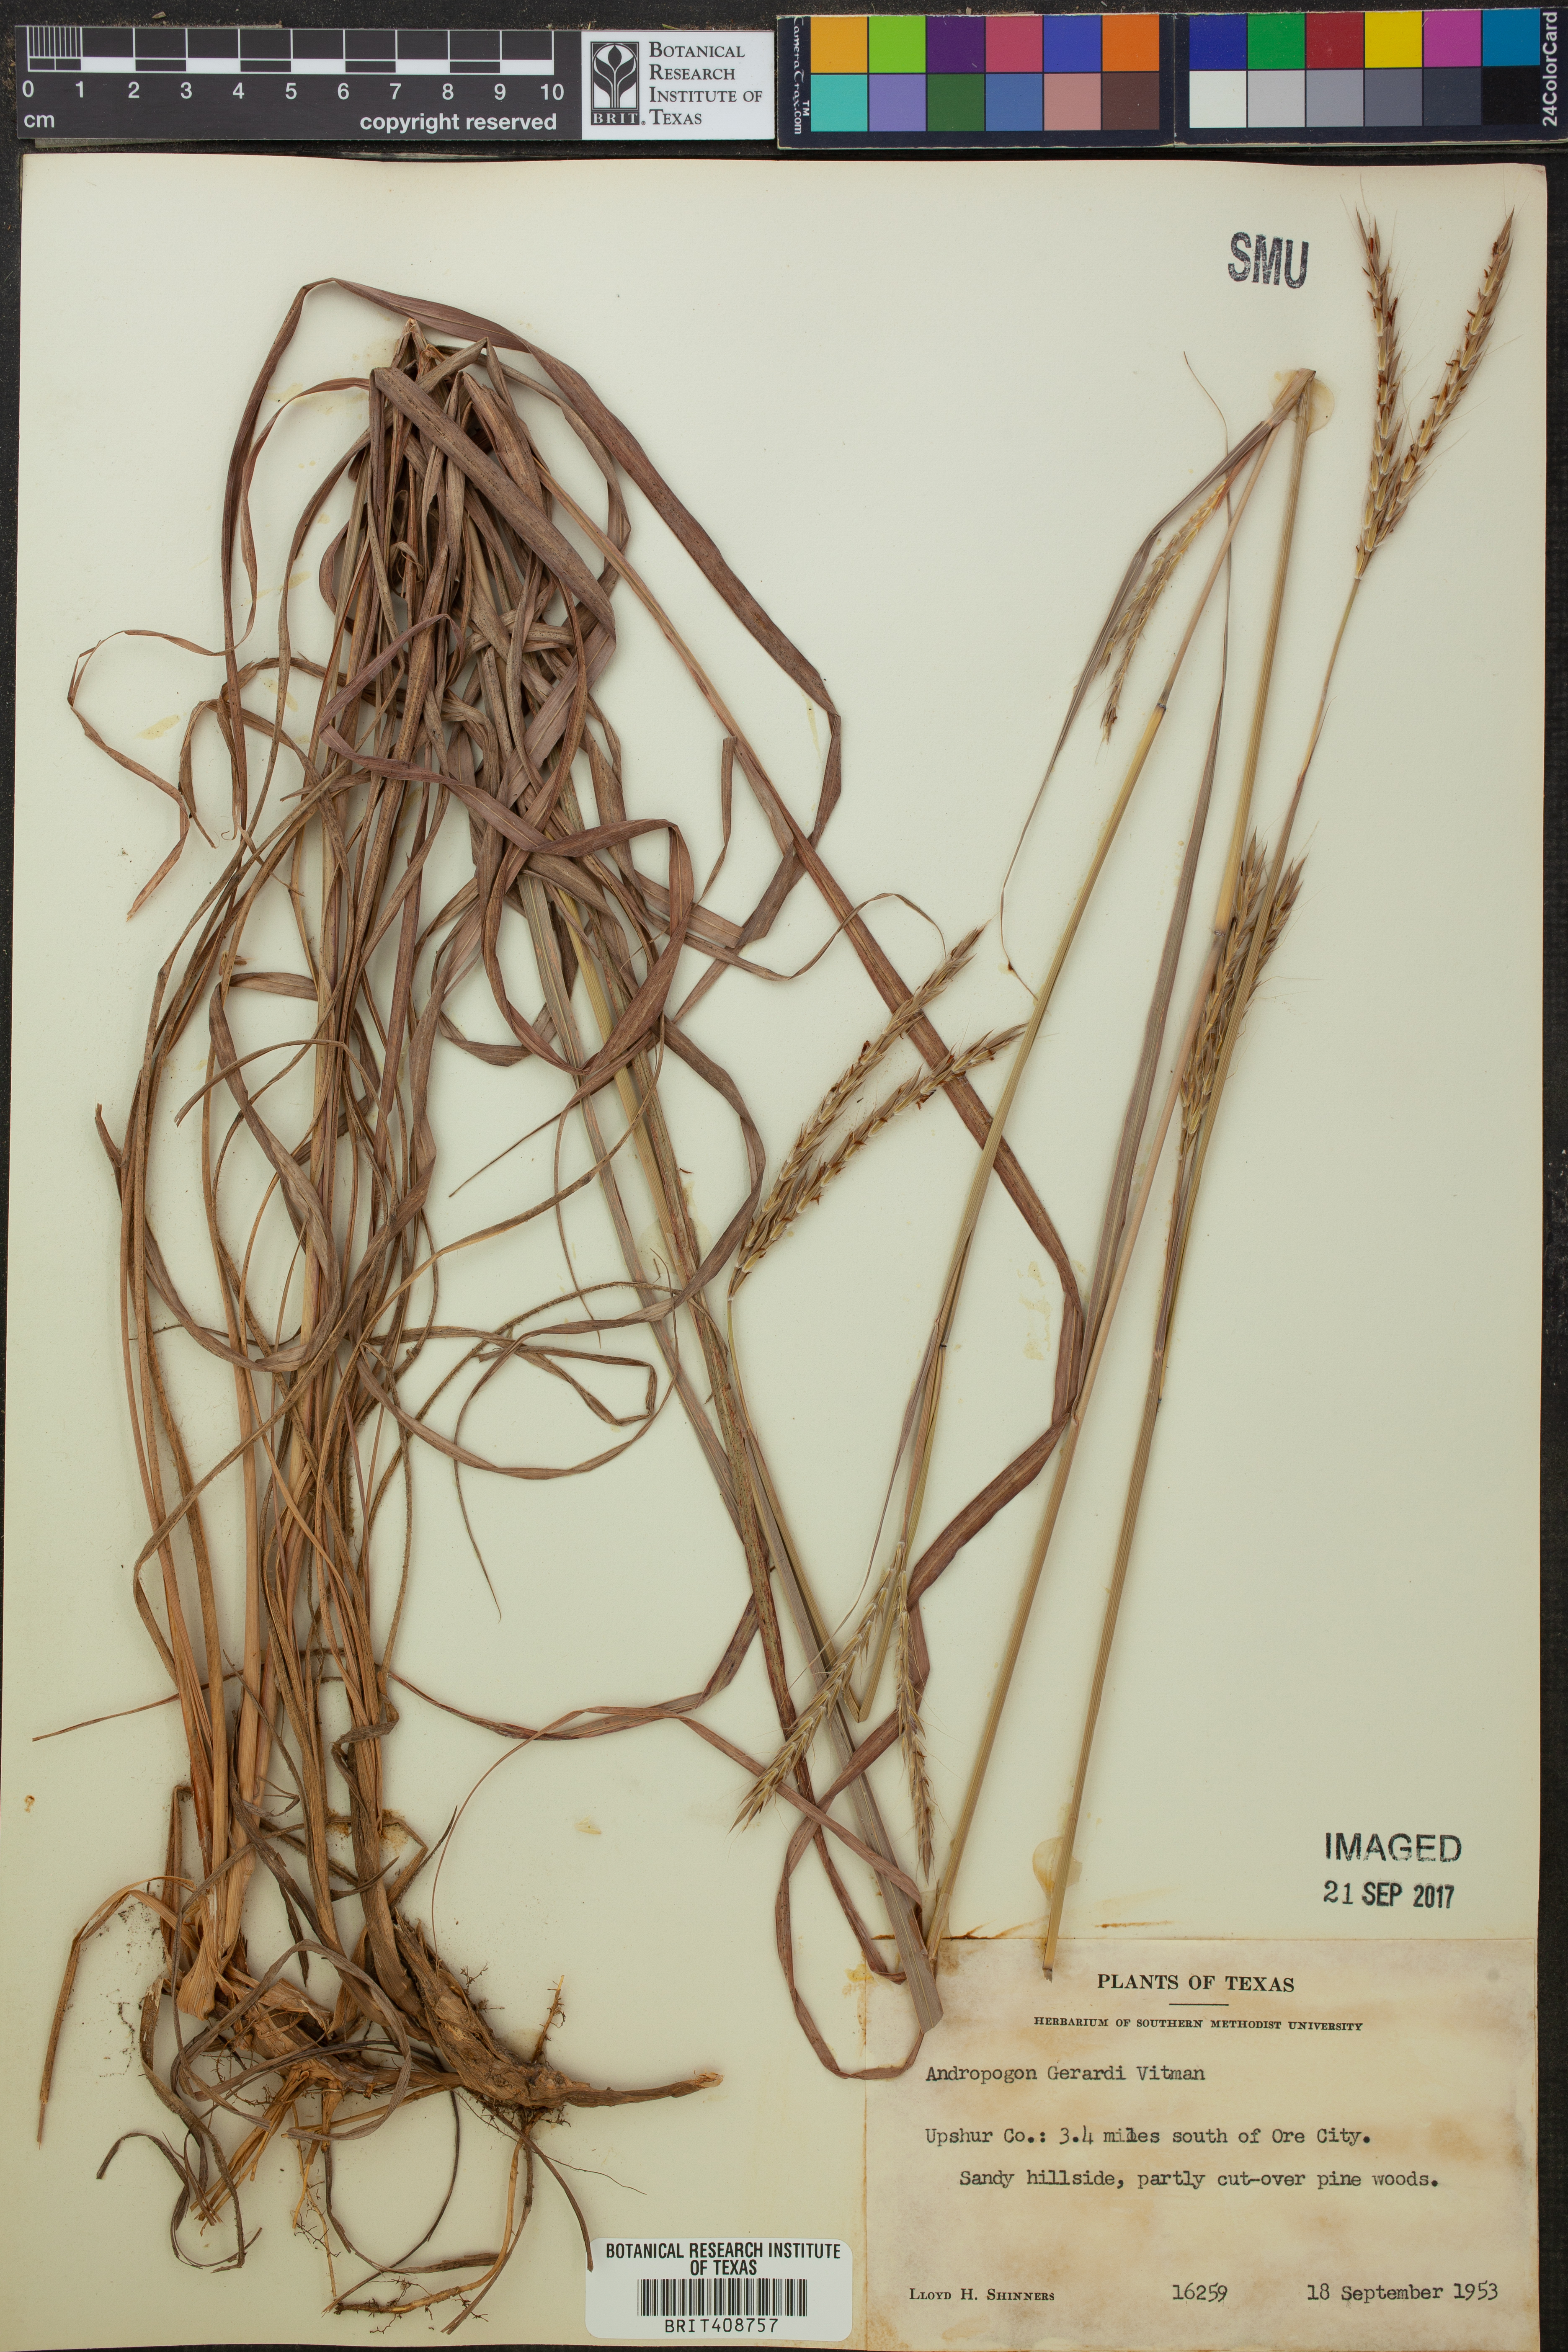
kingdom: Plantae
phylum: Tracheophyta
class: Liliopsida
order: Poales
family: Poaceae
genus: Andropogon
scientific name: Andropogon gerardi
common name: Big bluestem
